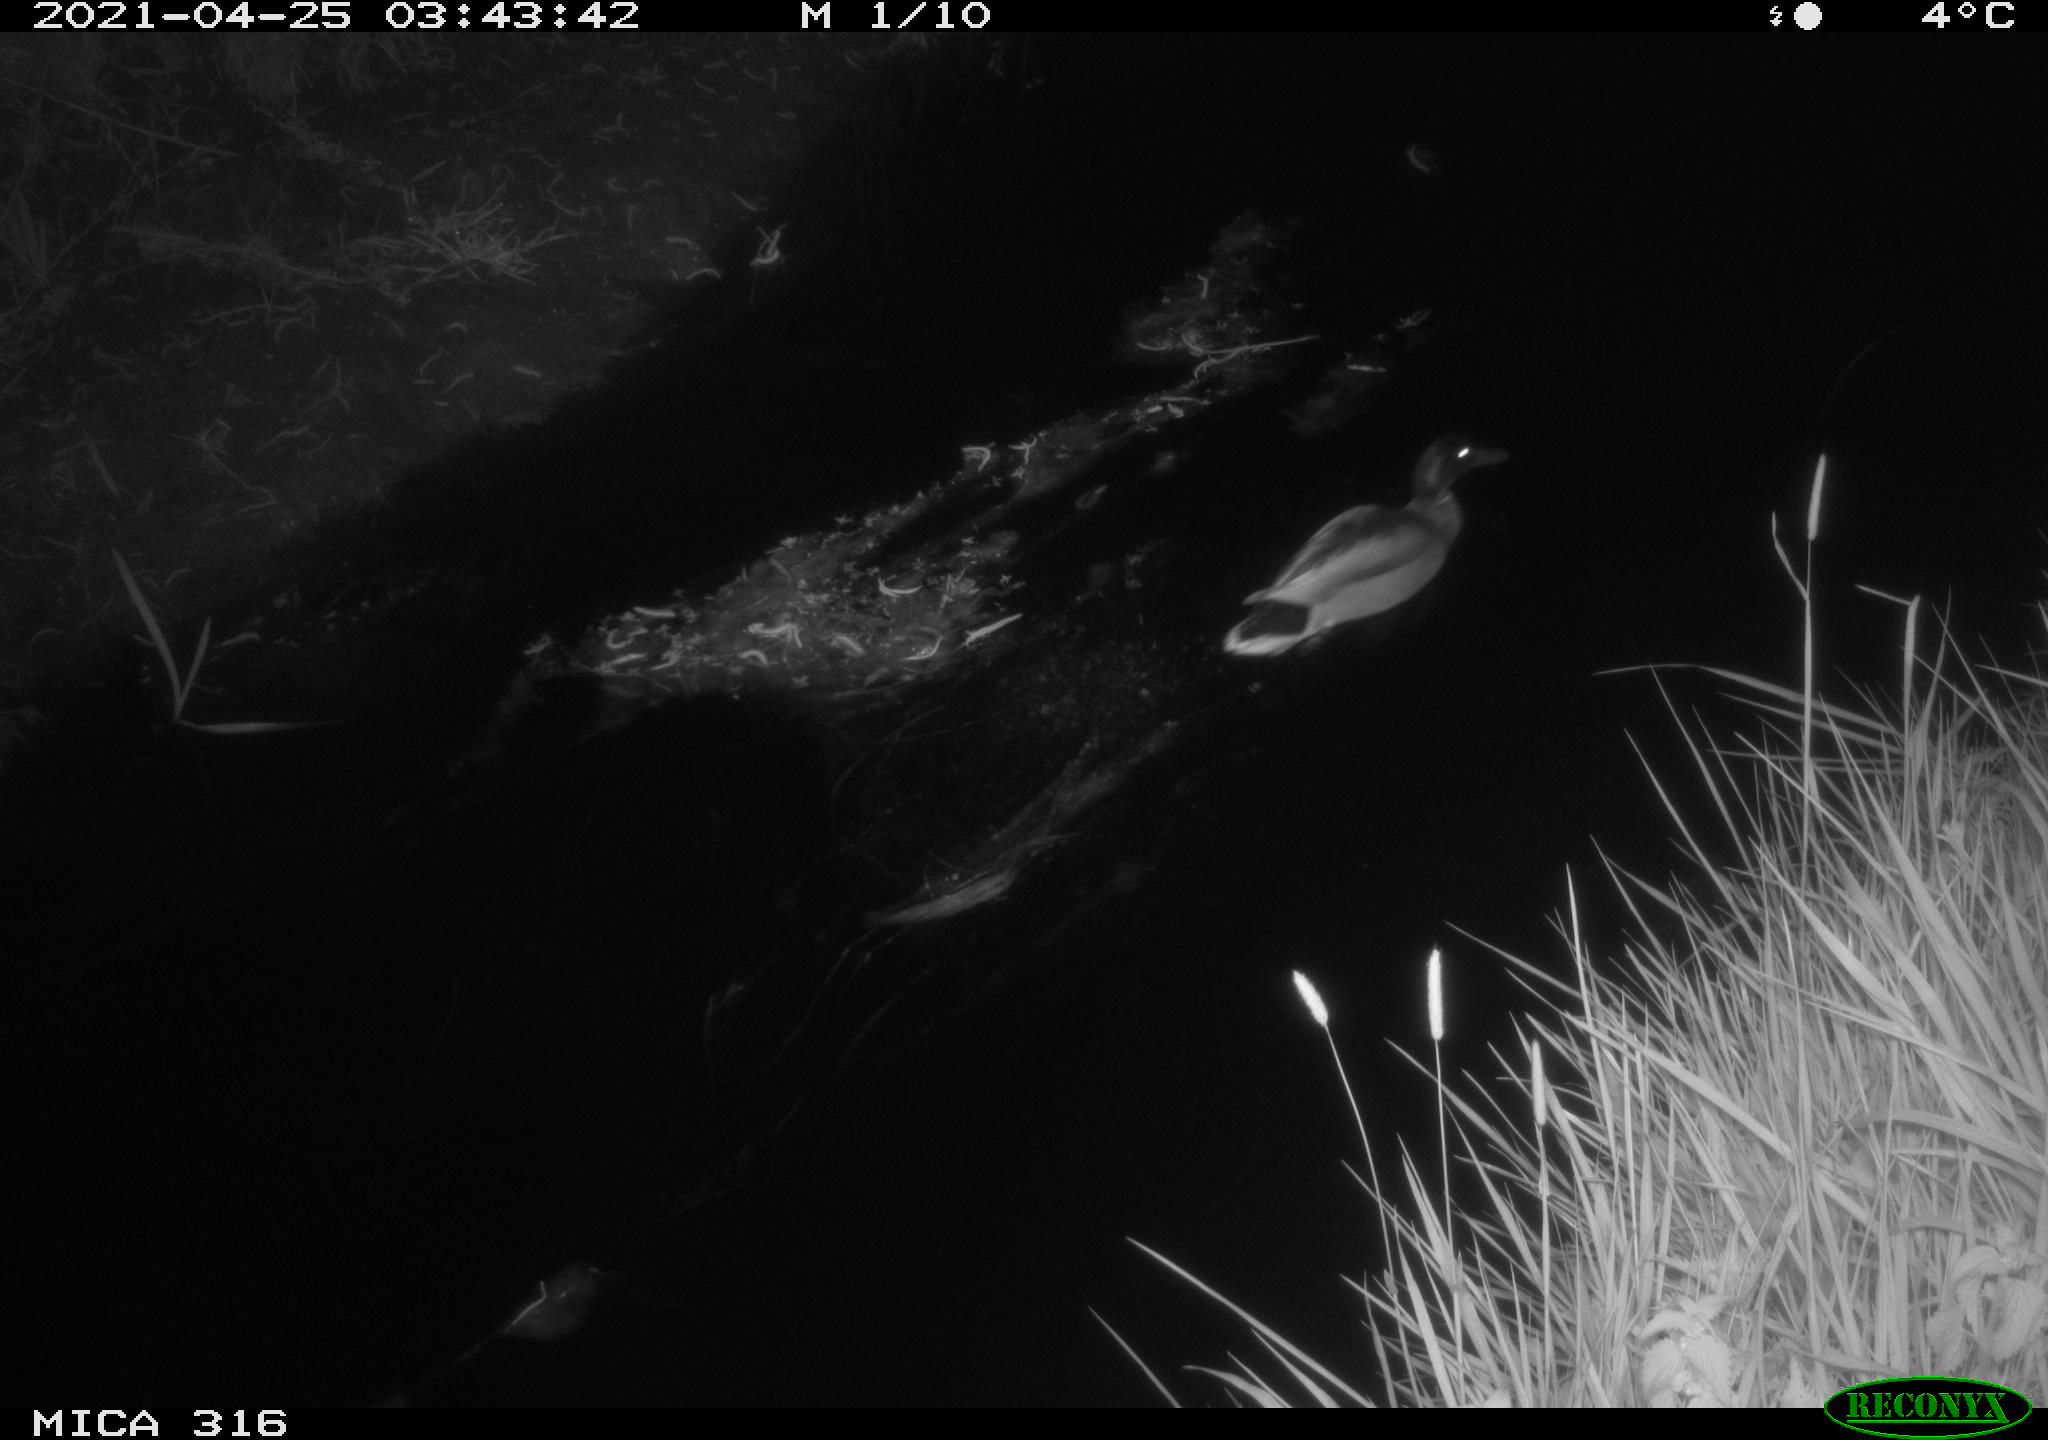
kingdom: Animalia
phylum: Chordata
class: Aves
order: Anseriformes
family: Anatidae
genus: Anas
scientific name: Anas platyrhynchos
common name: Mallard
